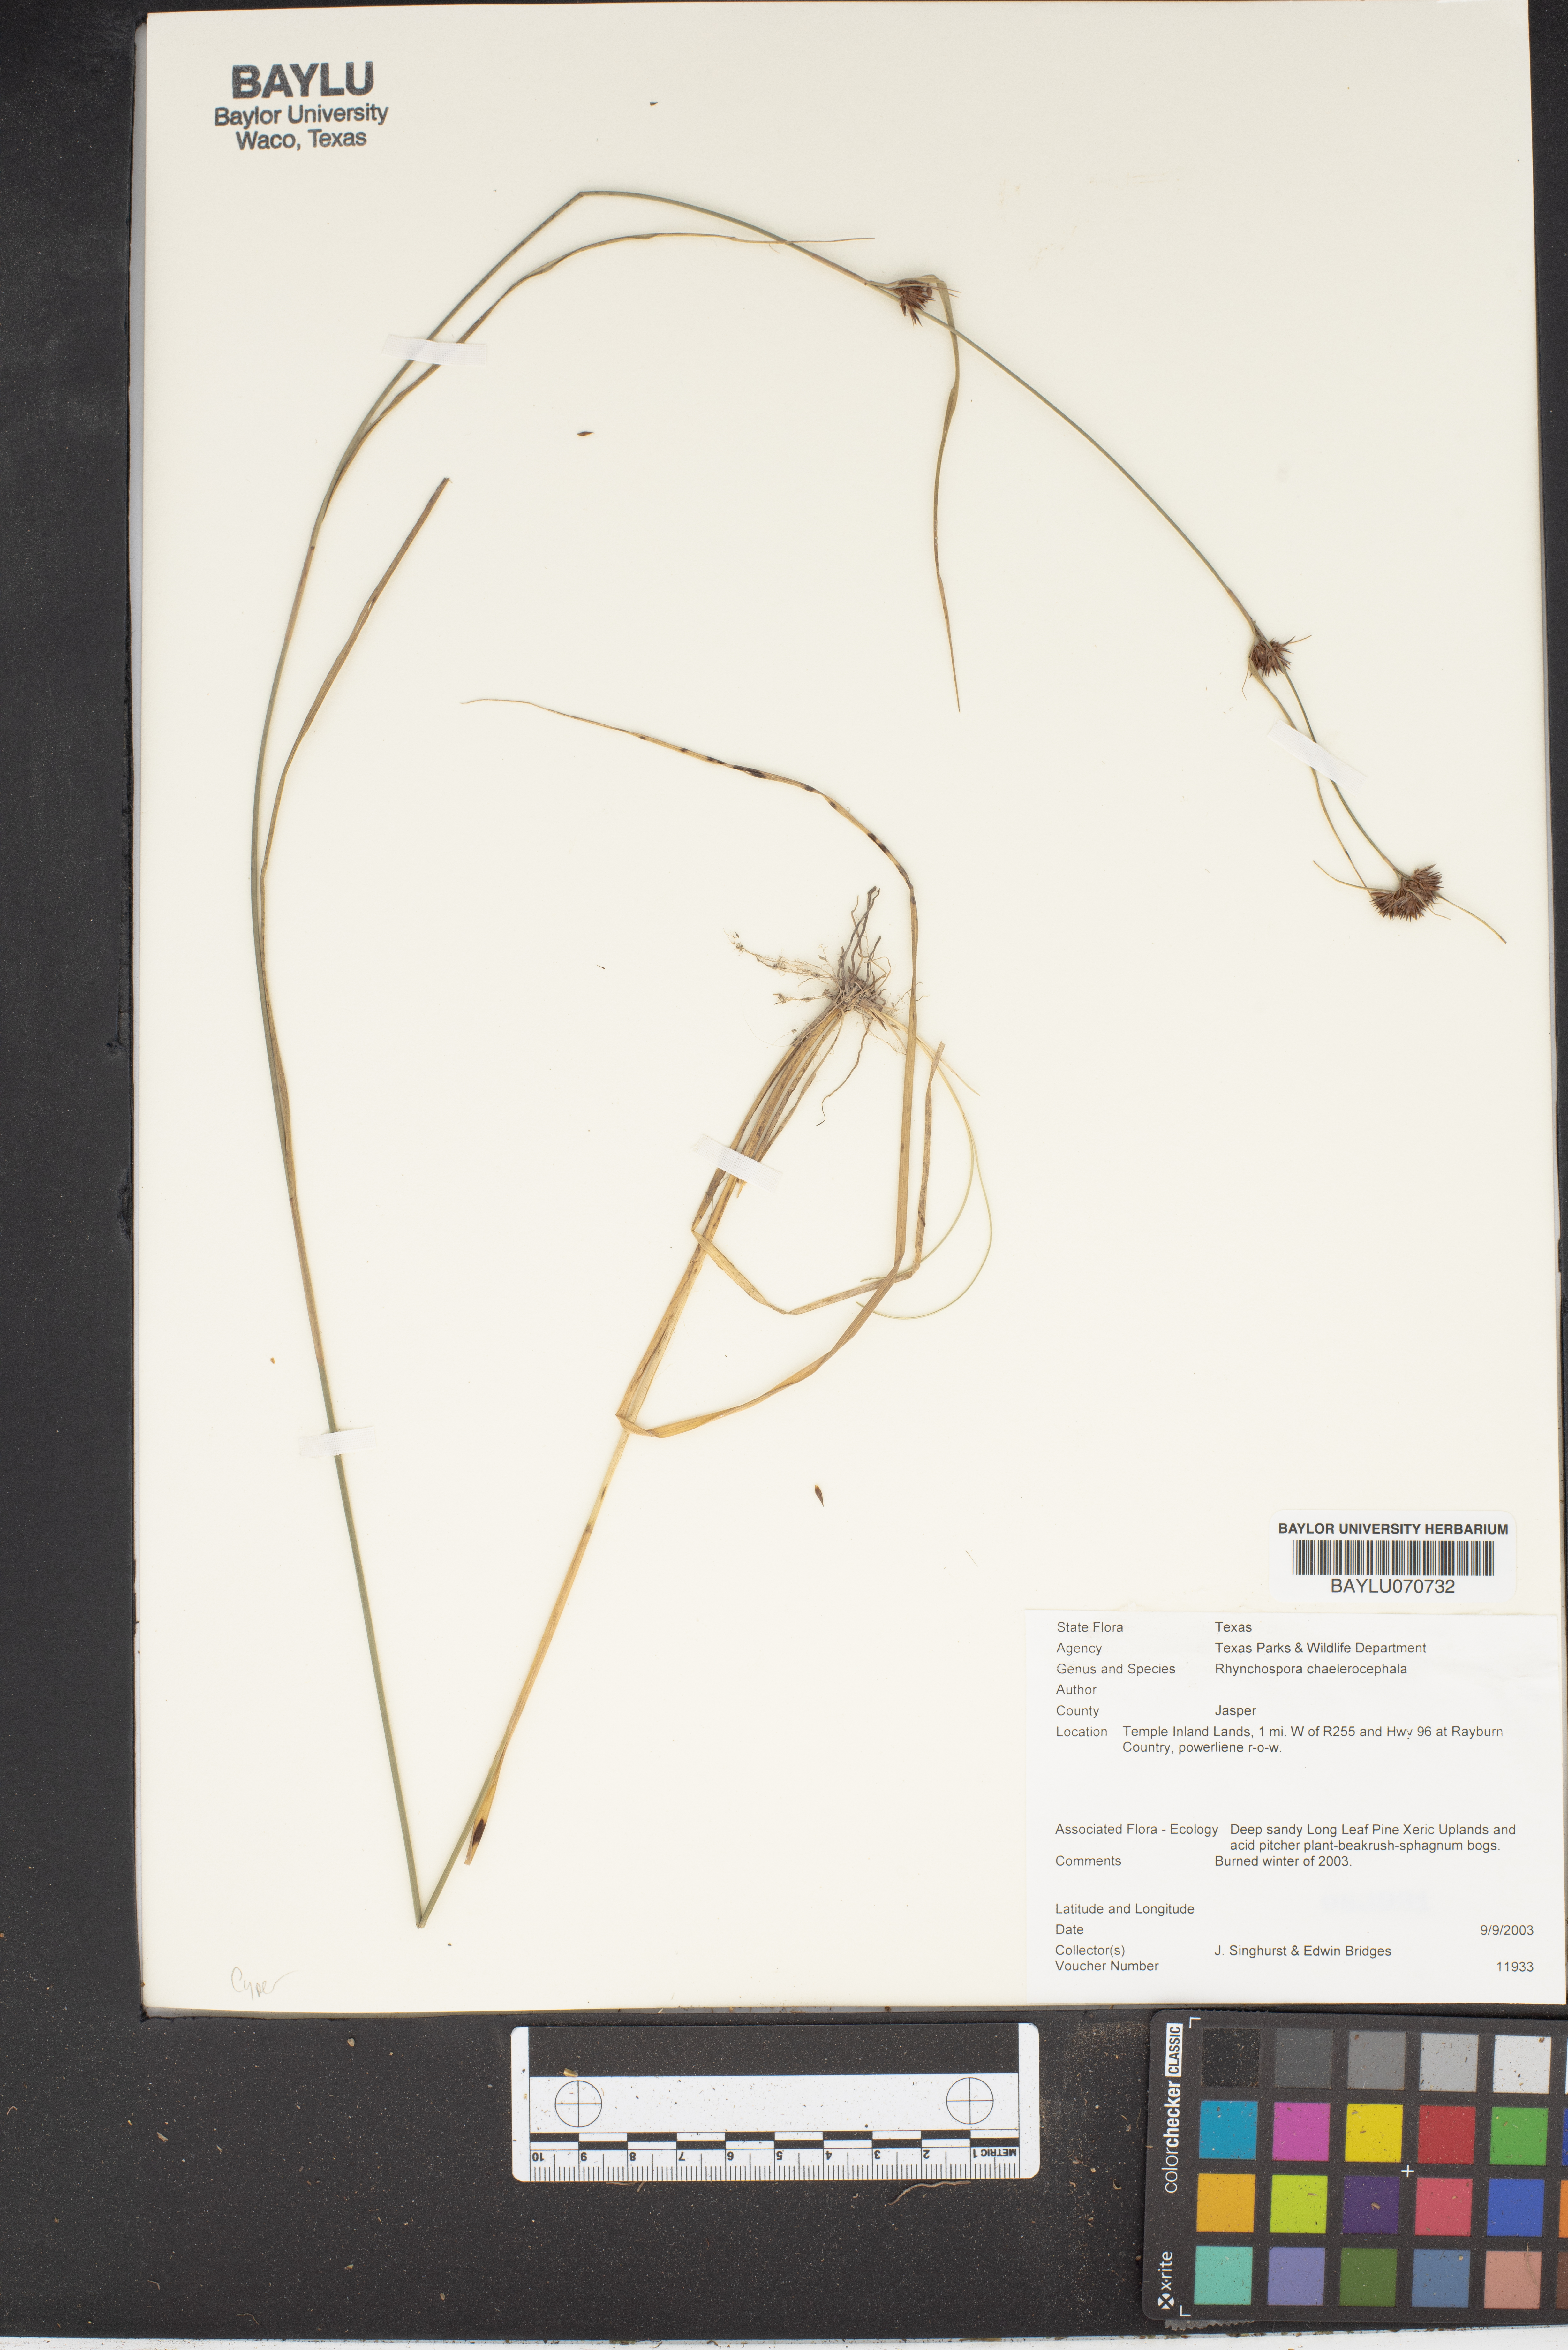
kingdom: Plantae
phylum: Tracheophyta
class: Liliopsida
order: Poales
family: Cyperaceae
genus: Rhynchospora
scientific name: Rhynchospora chalarocephala
